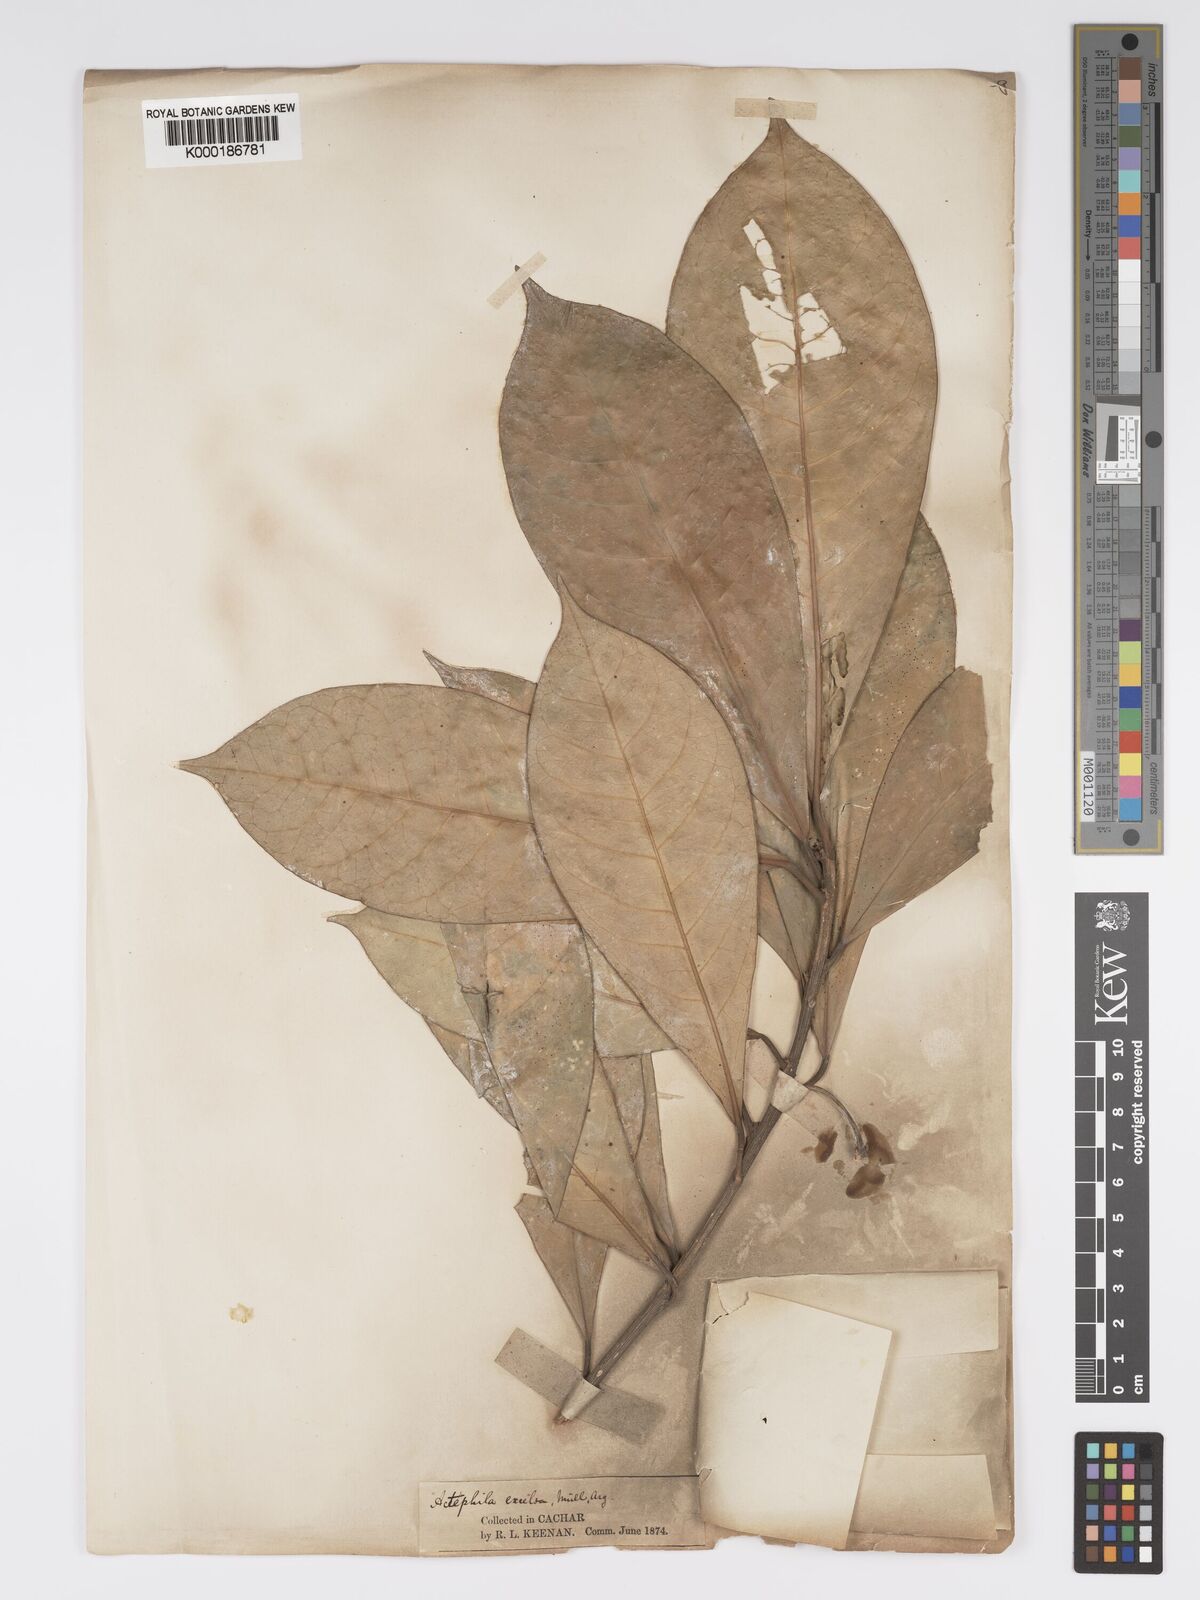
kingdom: Plantae
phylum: Tracheophyta
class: Magnoliopsida
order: Malpighiales
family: Phyllanthaceae
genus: Actephila
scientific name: Actephila excelsa
